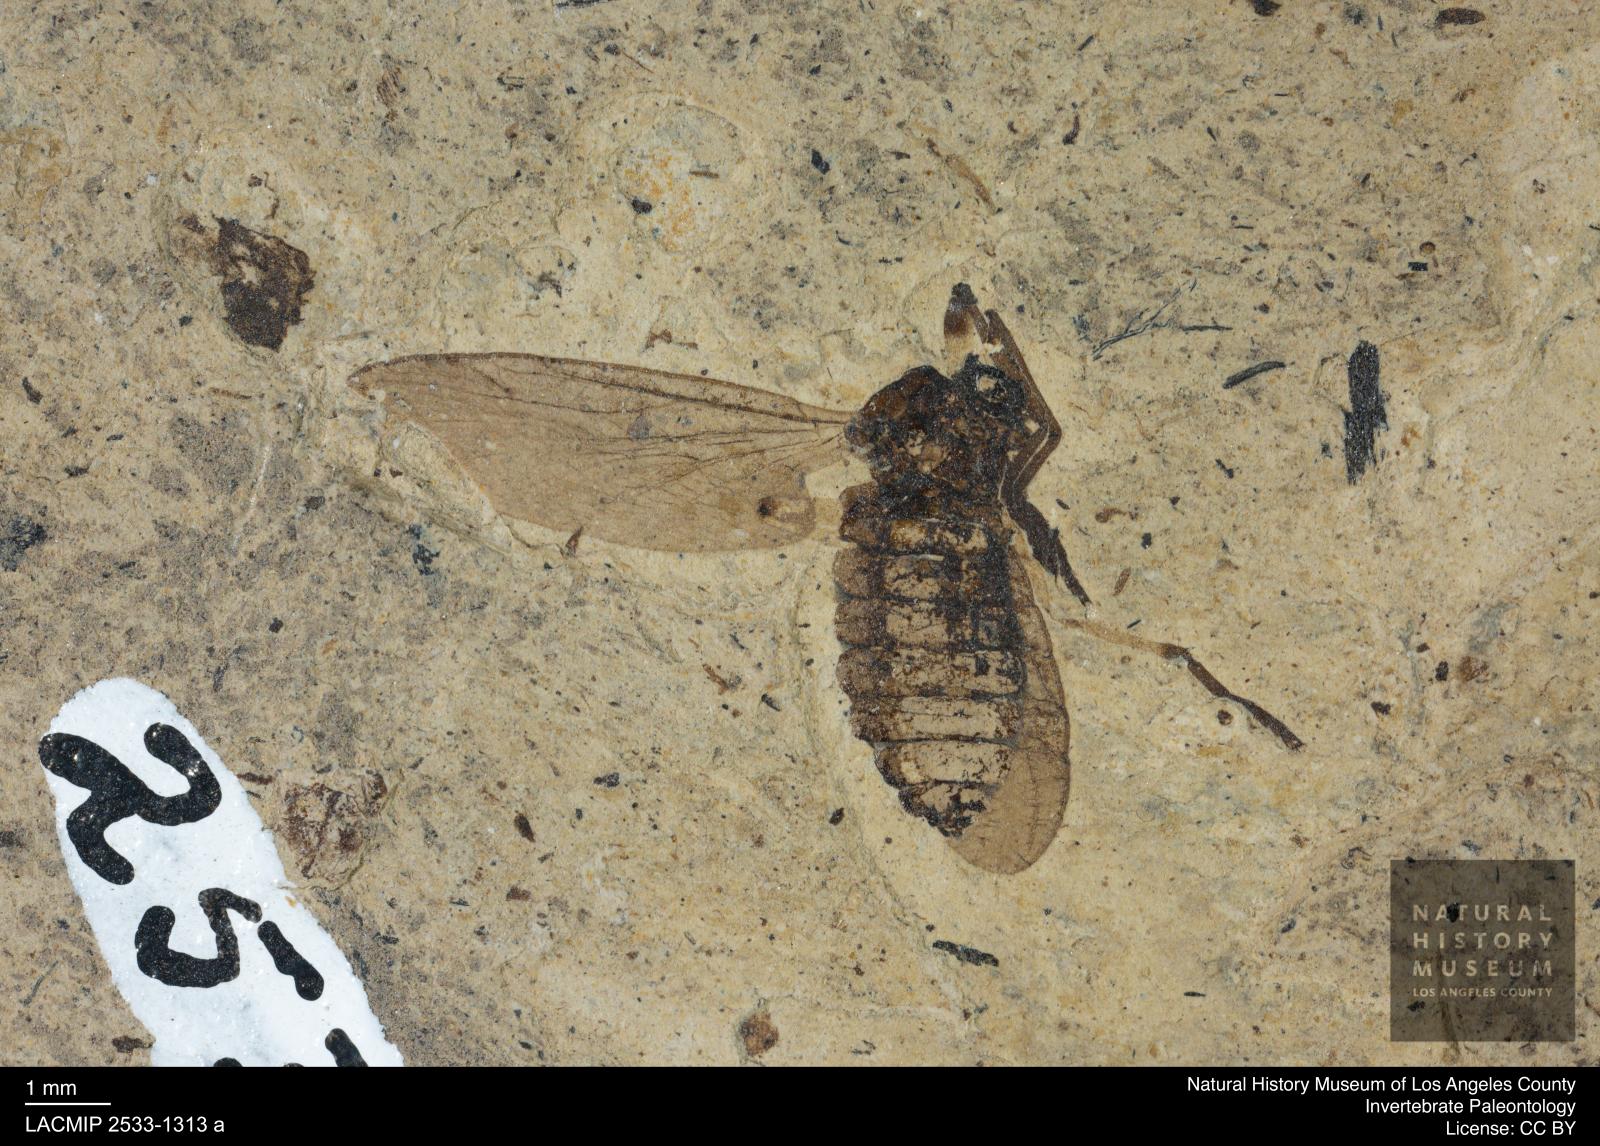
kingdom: Animalia
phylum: Arthropoda
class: Insecta
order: Diptera
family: Bibionidae
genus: Plecia
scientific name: Plecia stygia
